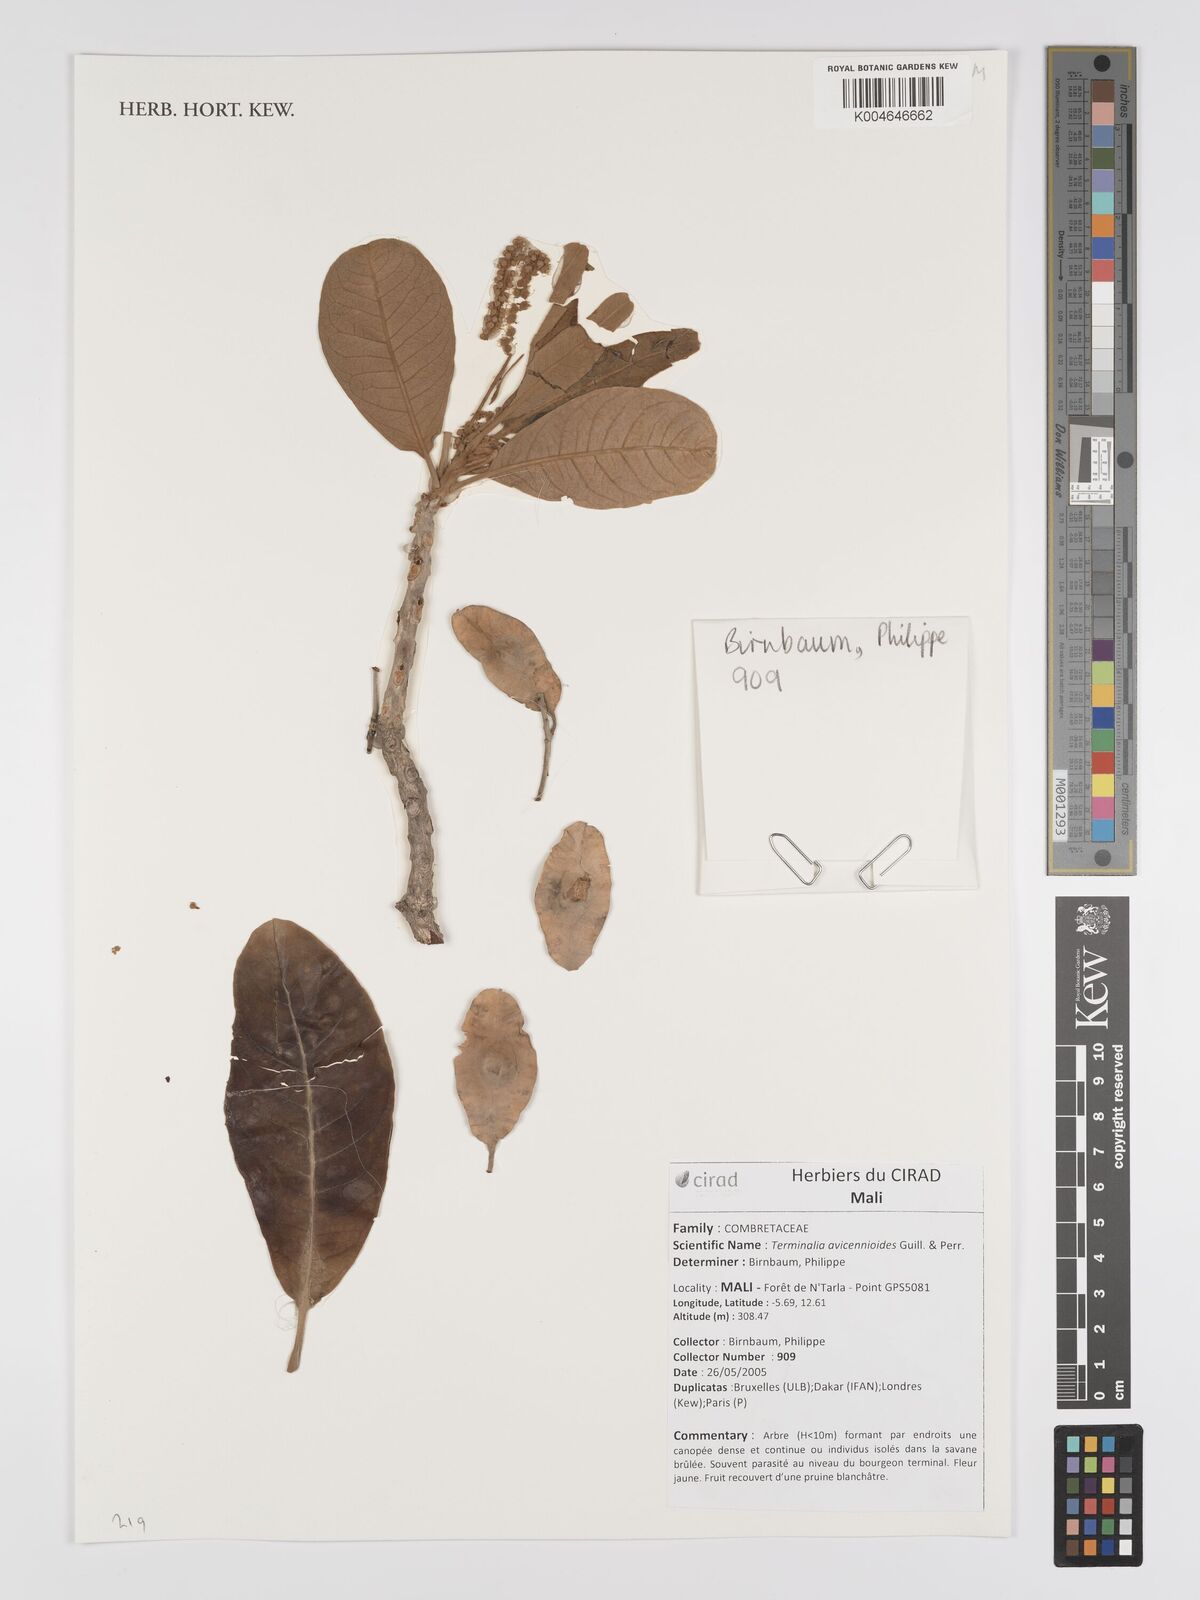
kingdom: Plantae
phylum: Tracheophyta
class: Magnoliopsida
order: Myrtales
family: Combretaceae
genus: Terminalia
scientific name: Terminalia avicennioides
